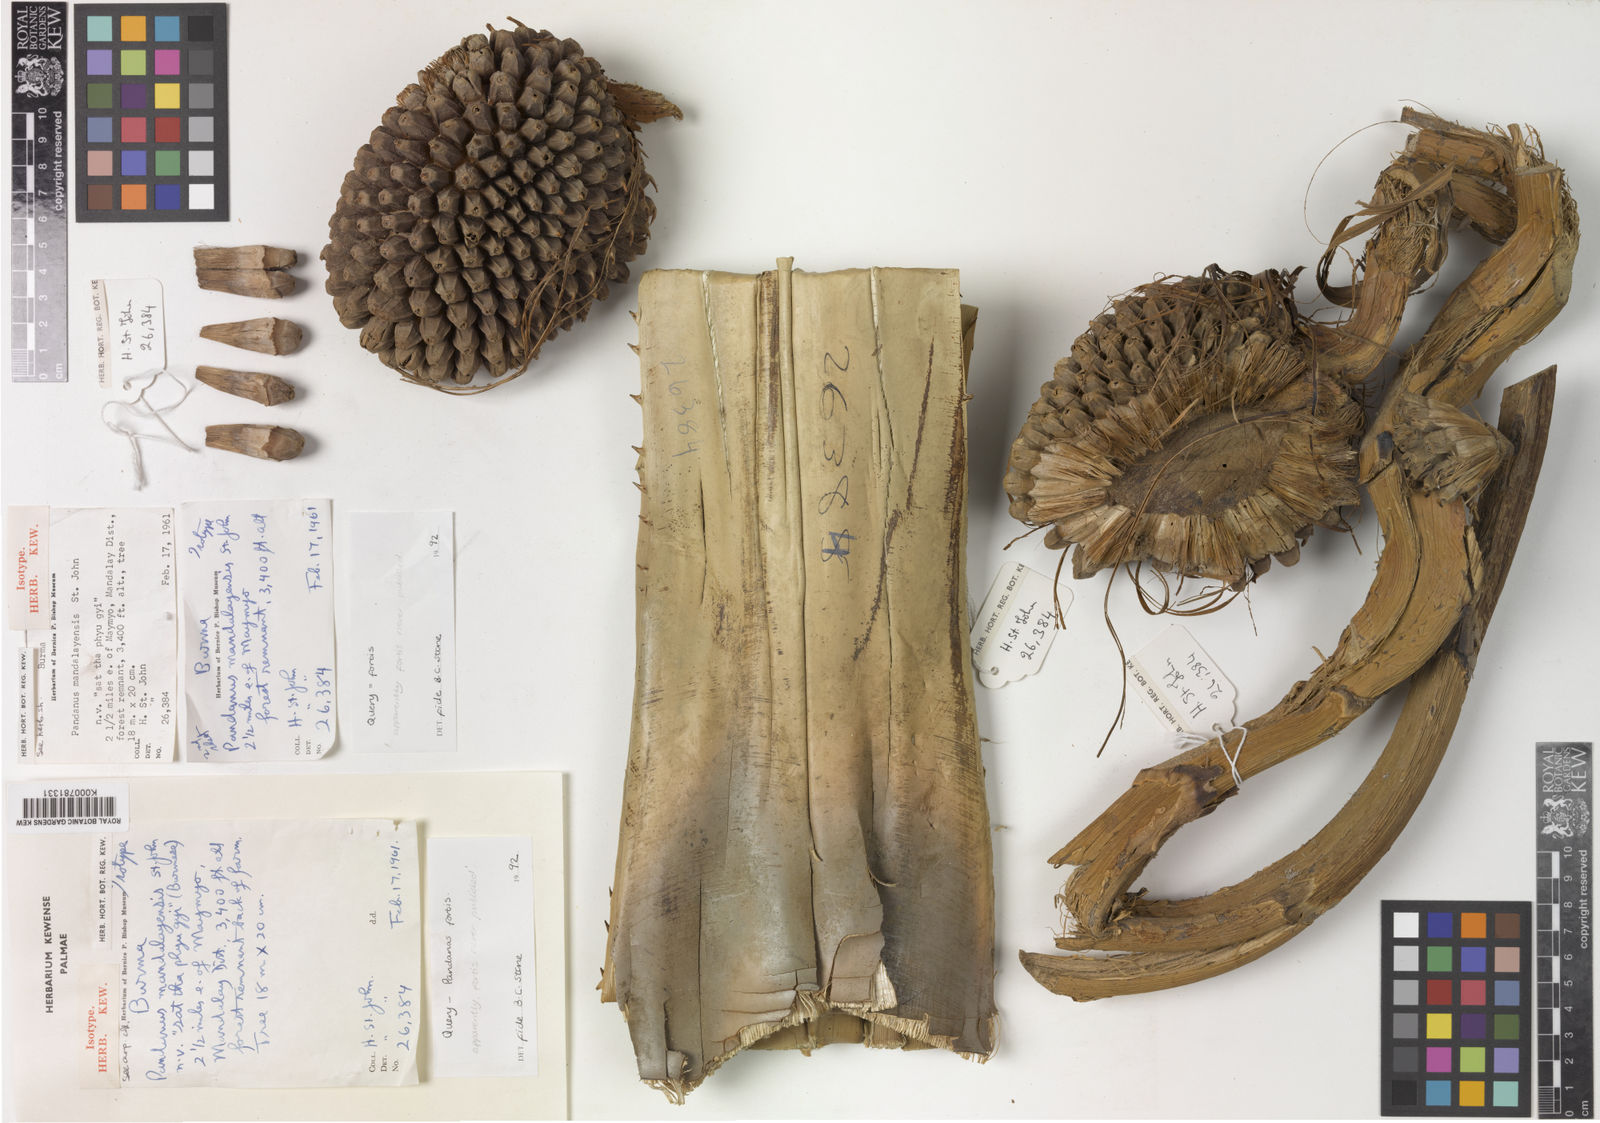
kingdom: Plantae
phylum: Tracheophyta
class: Liliopsida
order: Pandanales
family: Pandanaceae
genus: Pandanus
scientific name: Pandanus
